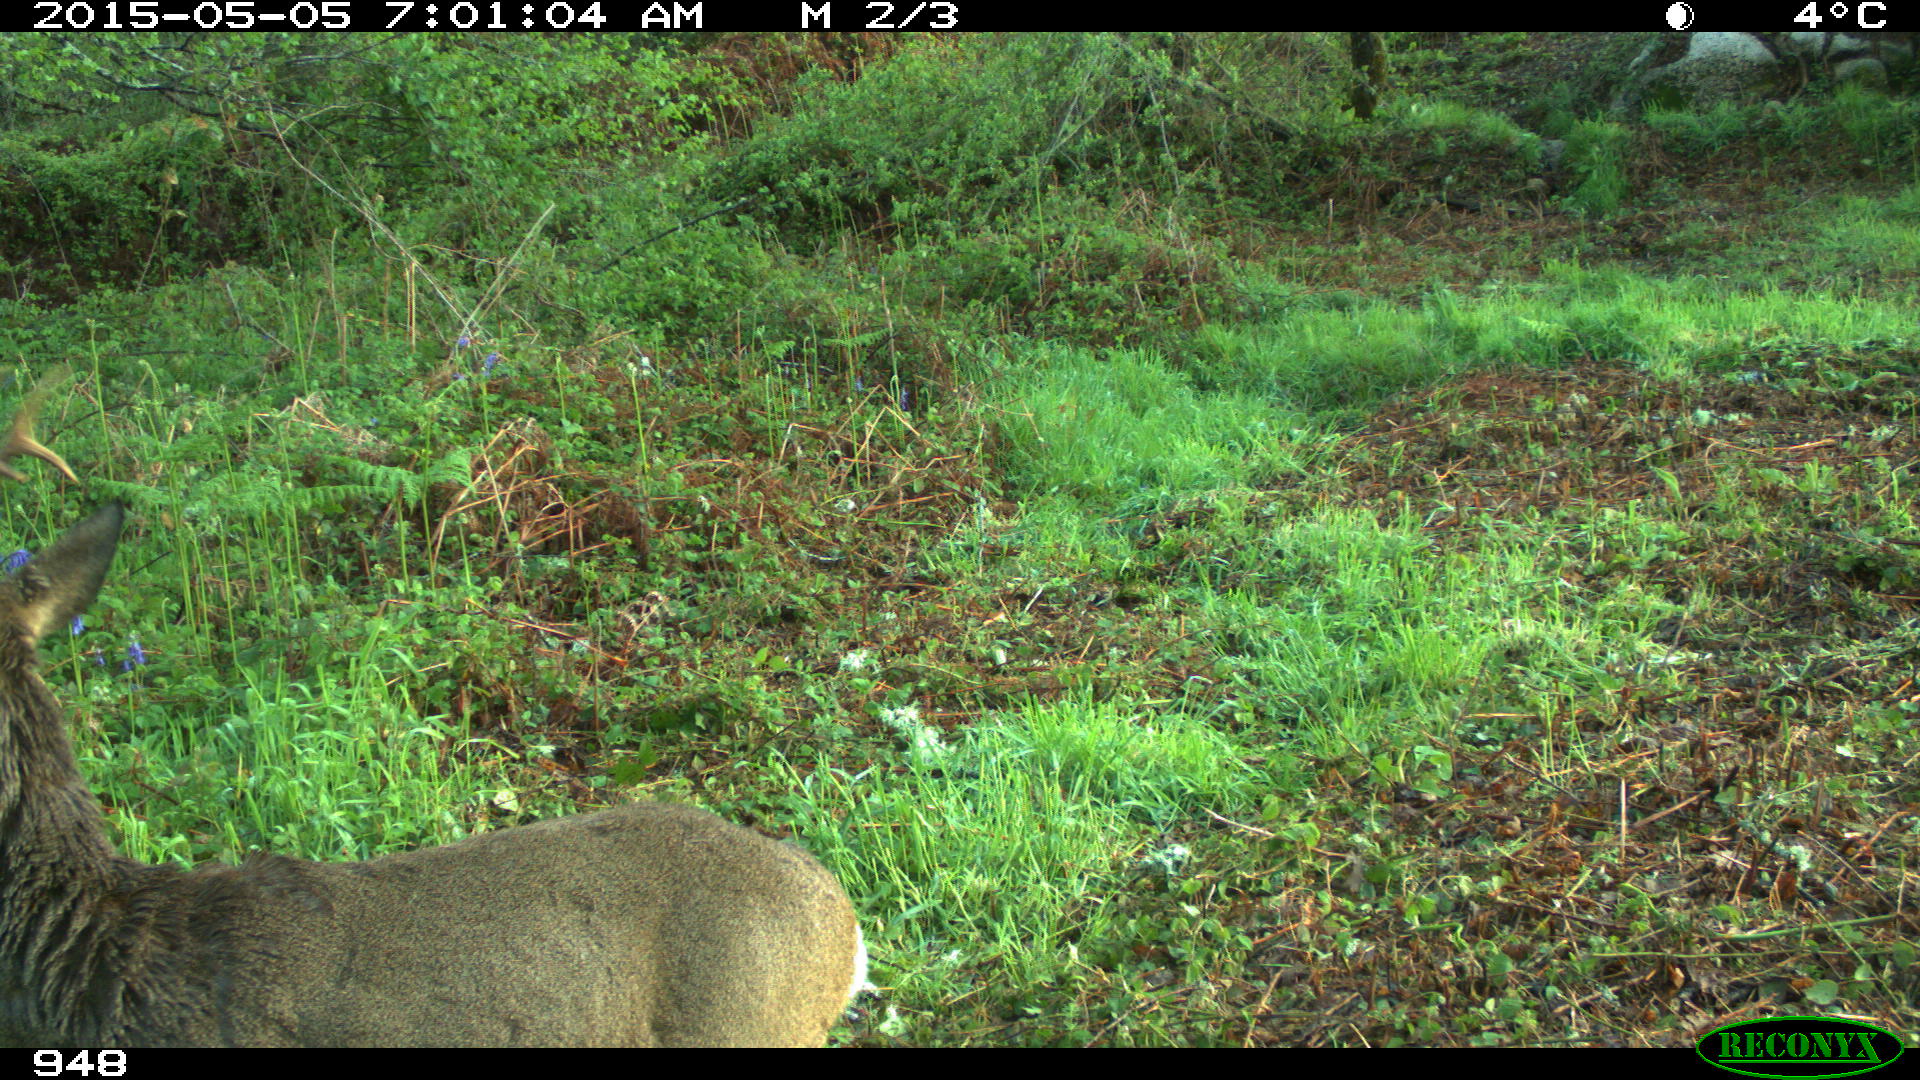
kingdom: Animalia
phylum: Chordata
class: Mammalia
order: Artiodactyla
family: Cervidae
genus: Capreolus
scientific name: Capreolus capreolus
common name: Western roe deer
